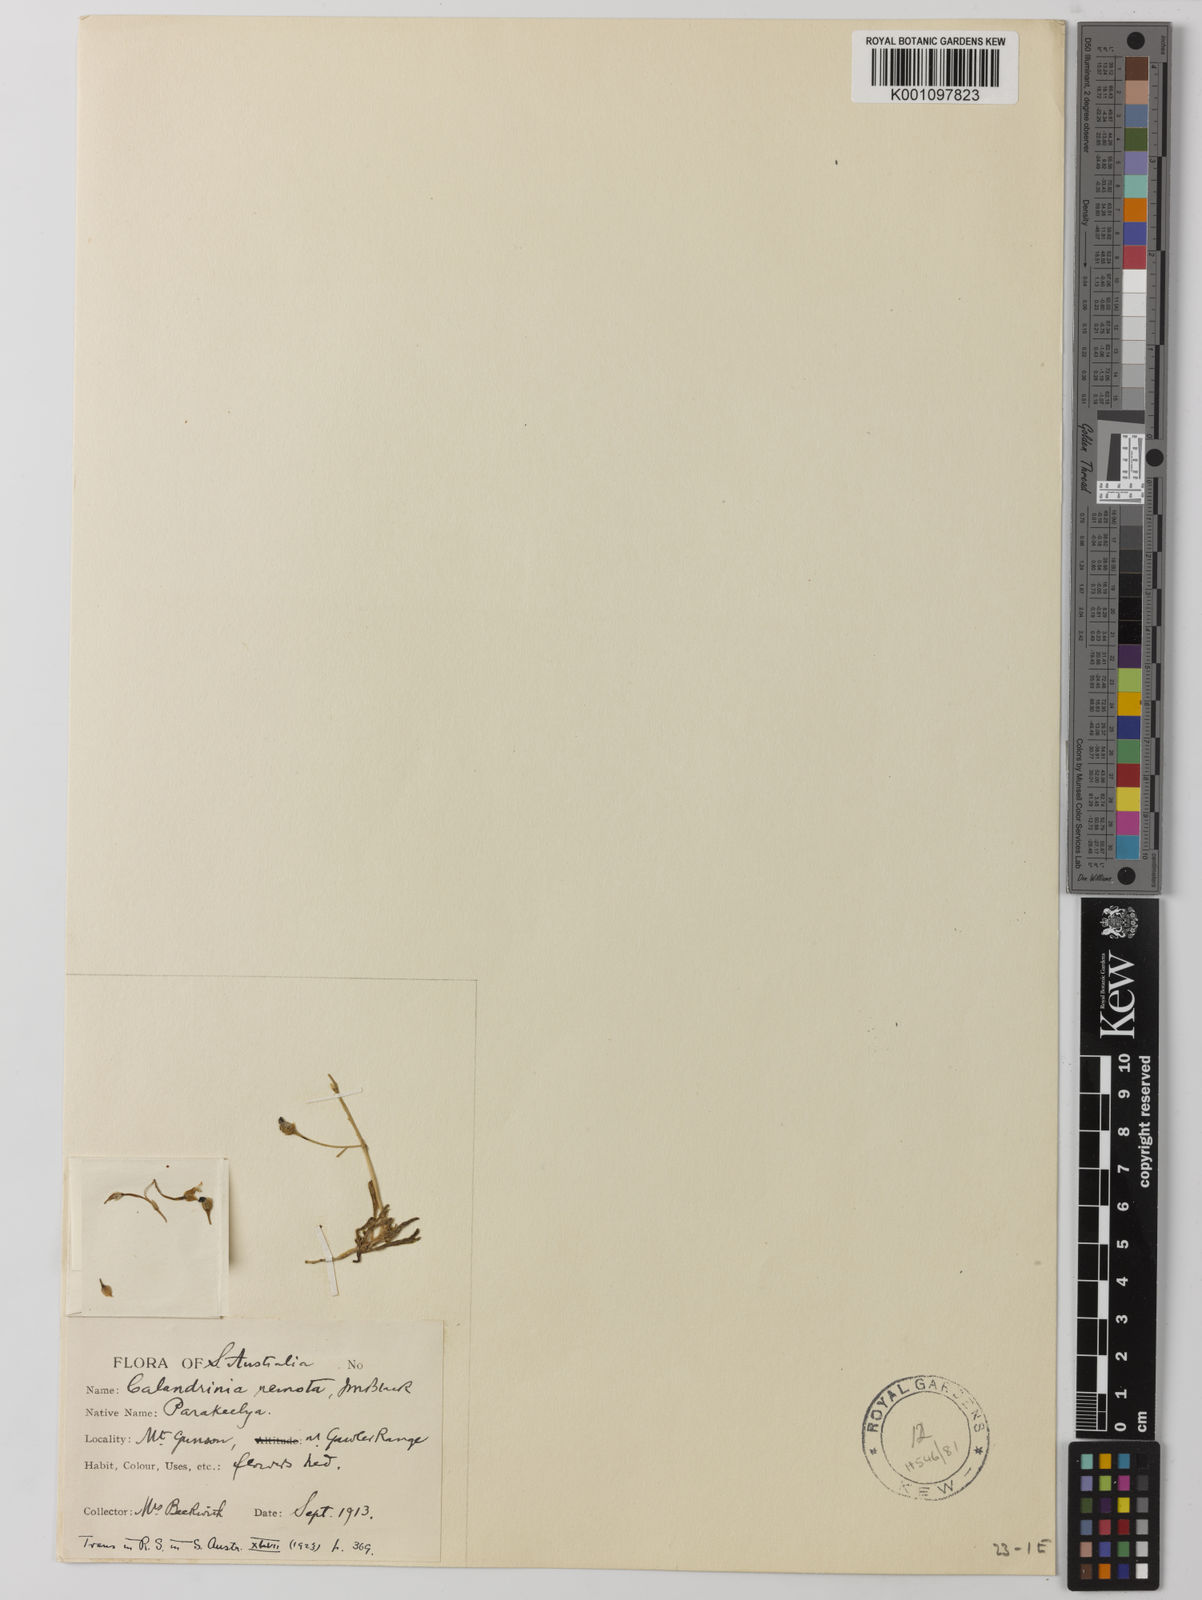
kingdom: Plantae
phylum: Tracheophyta
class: Magnoliopsida
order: Caryophyllales
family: Montiaceae
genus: Rumicastrum
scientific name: Rumicastrum remotum
